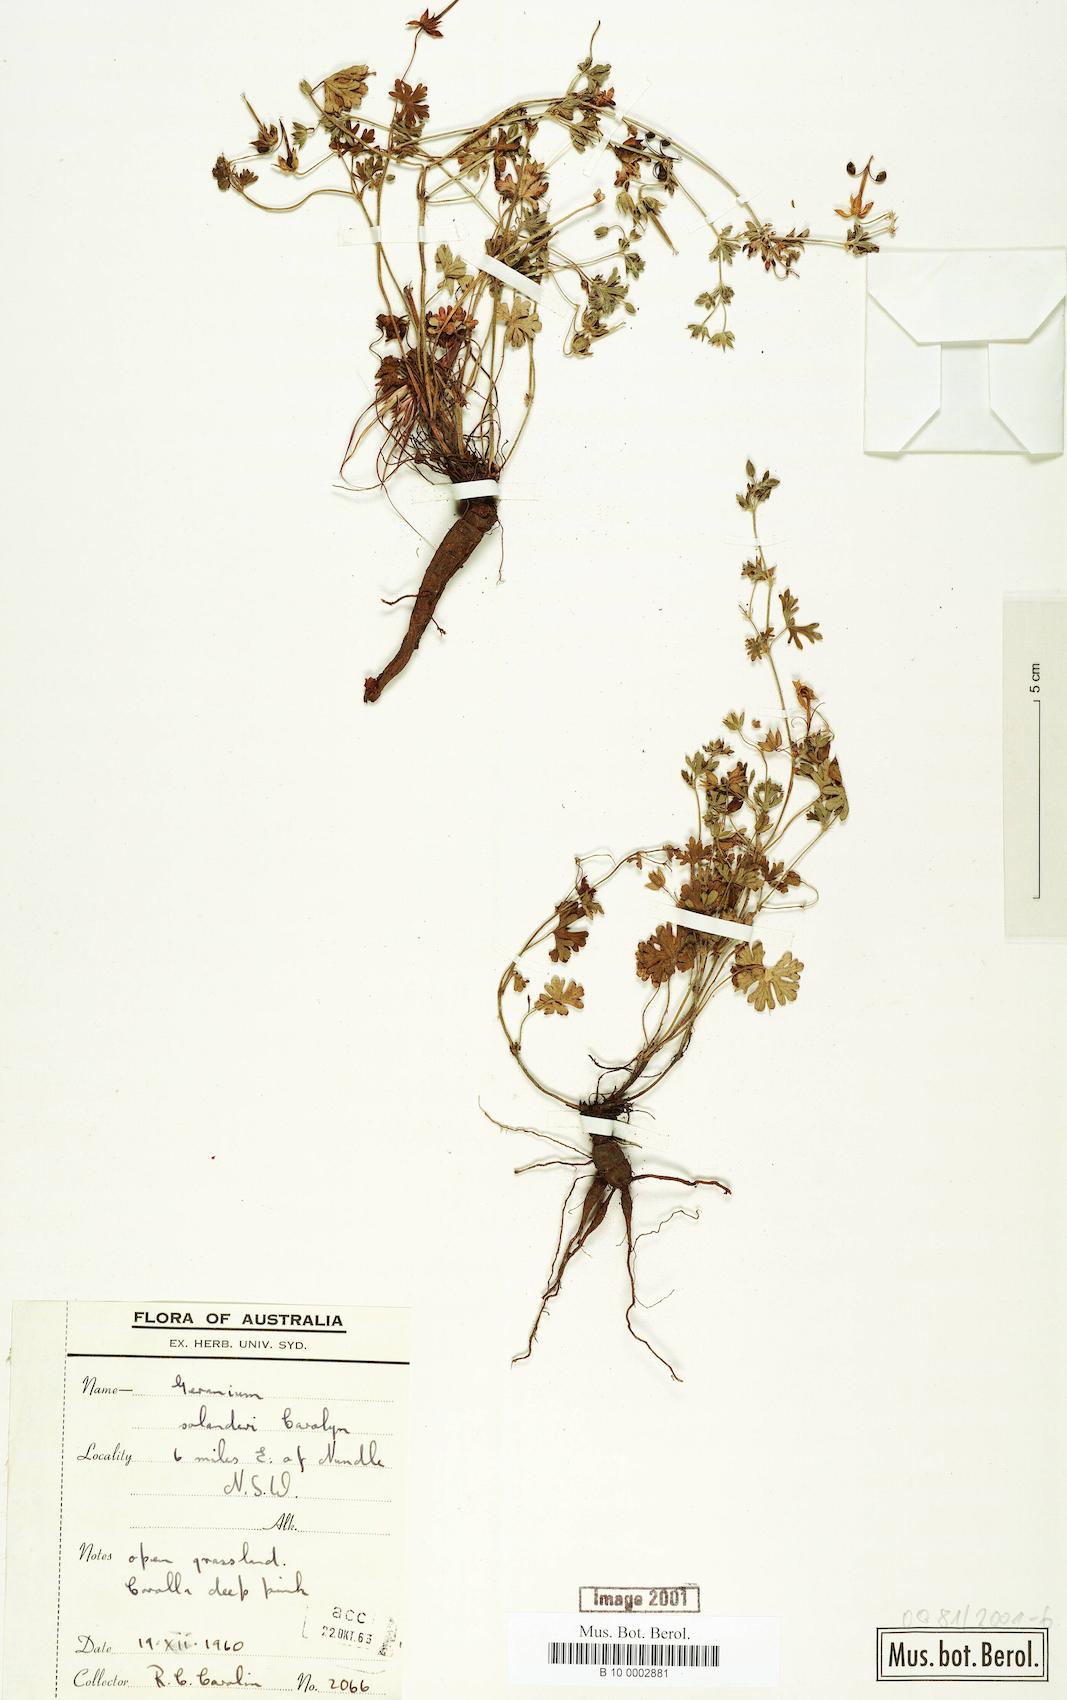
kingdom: Plantae
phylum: Tracheophyta
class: Magnoliopsida
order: Geraniales
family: Geraniaceae
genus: Geranium
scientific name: Geranium solanderi
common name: Solander's geranium
